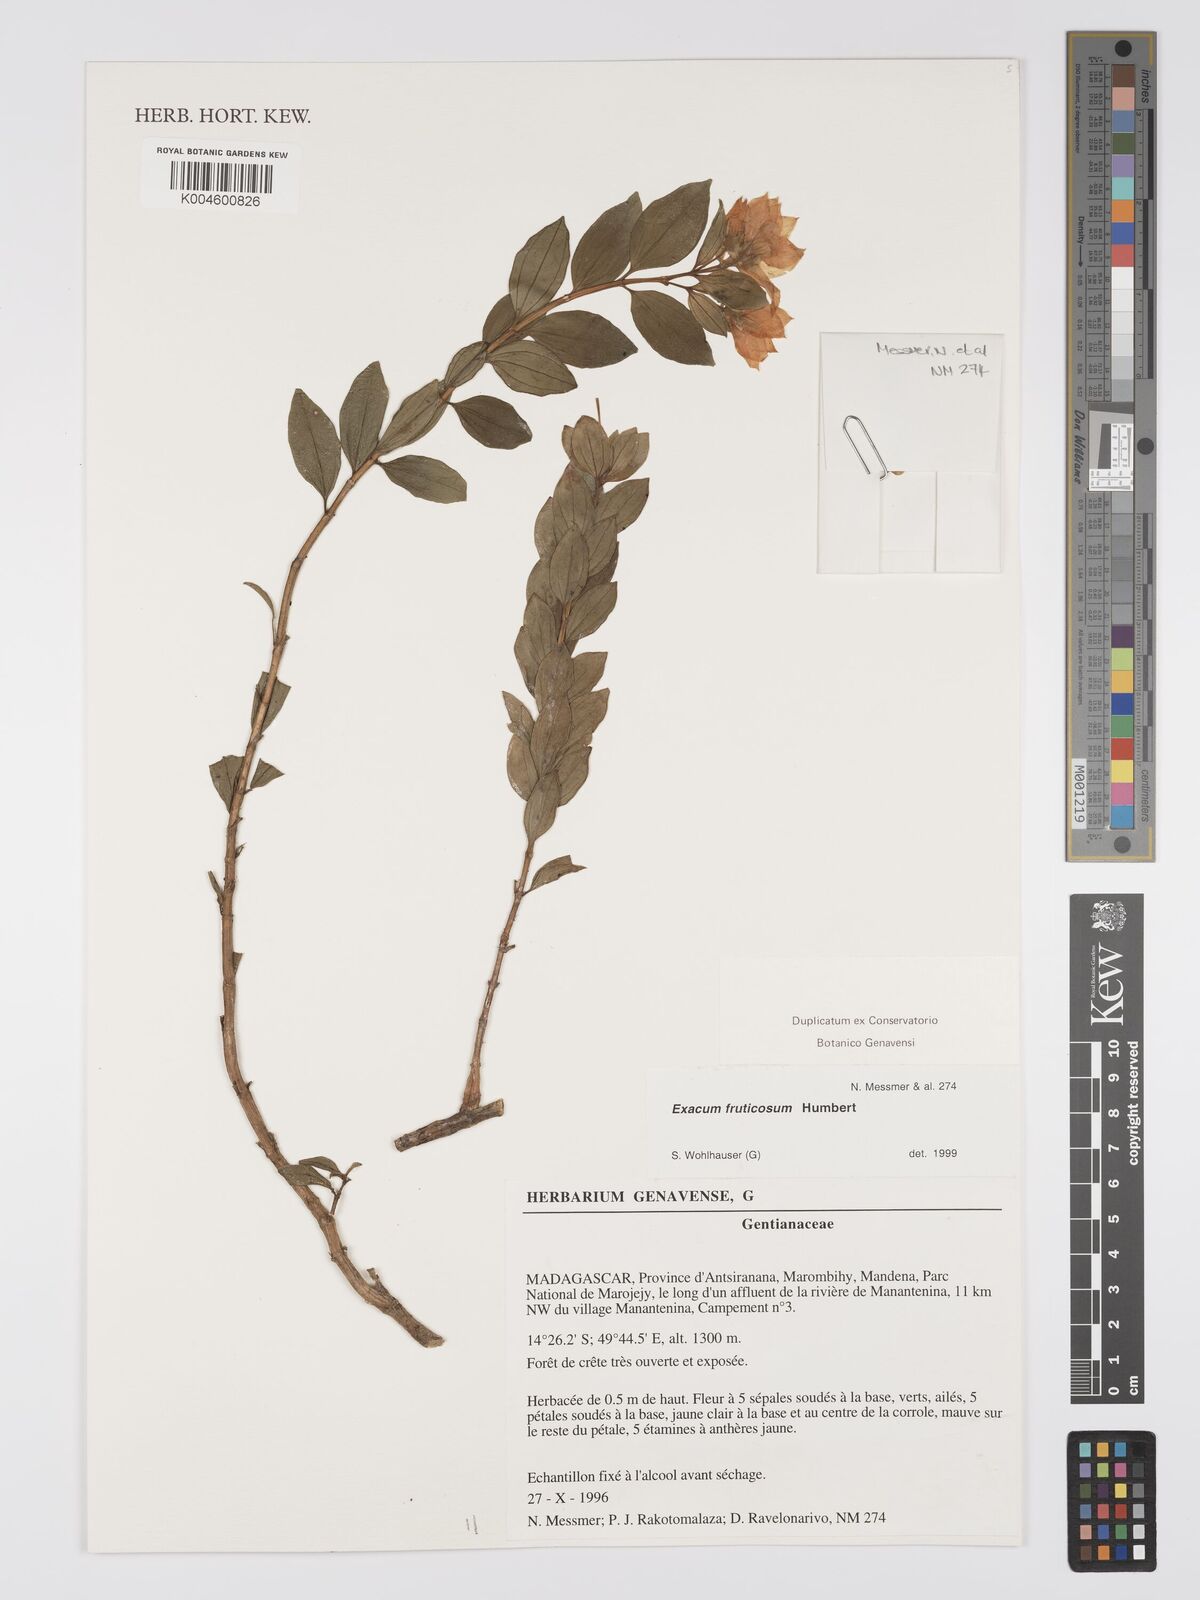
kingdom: Plantae
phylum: Tracheophyta
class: Magnoliopsida
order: Gentianales
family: Gentianaceae
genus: Exacum
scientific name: Exacum fruticosum
